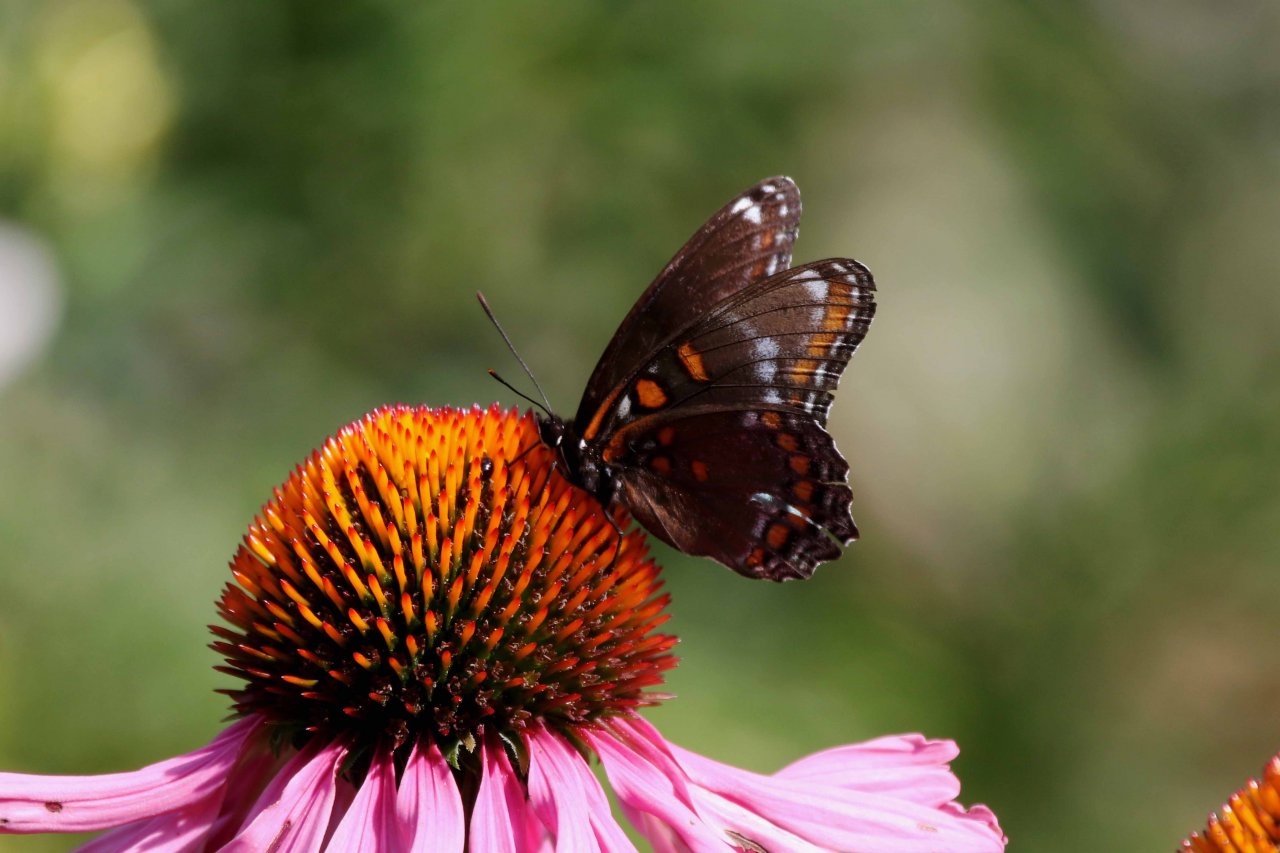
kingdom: Animalia
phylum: Arthropoda
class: Insecta
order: Lepidoptera
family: Nymphalidae
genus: Limenitis
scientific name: Limenitis astyanax
